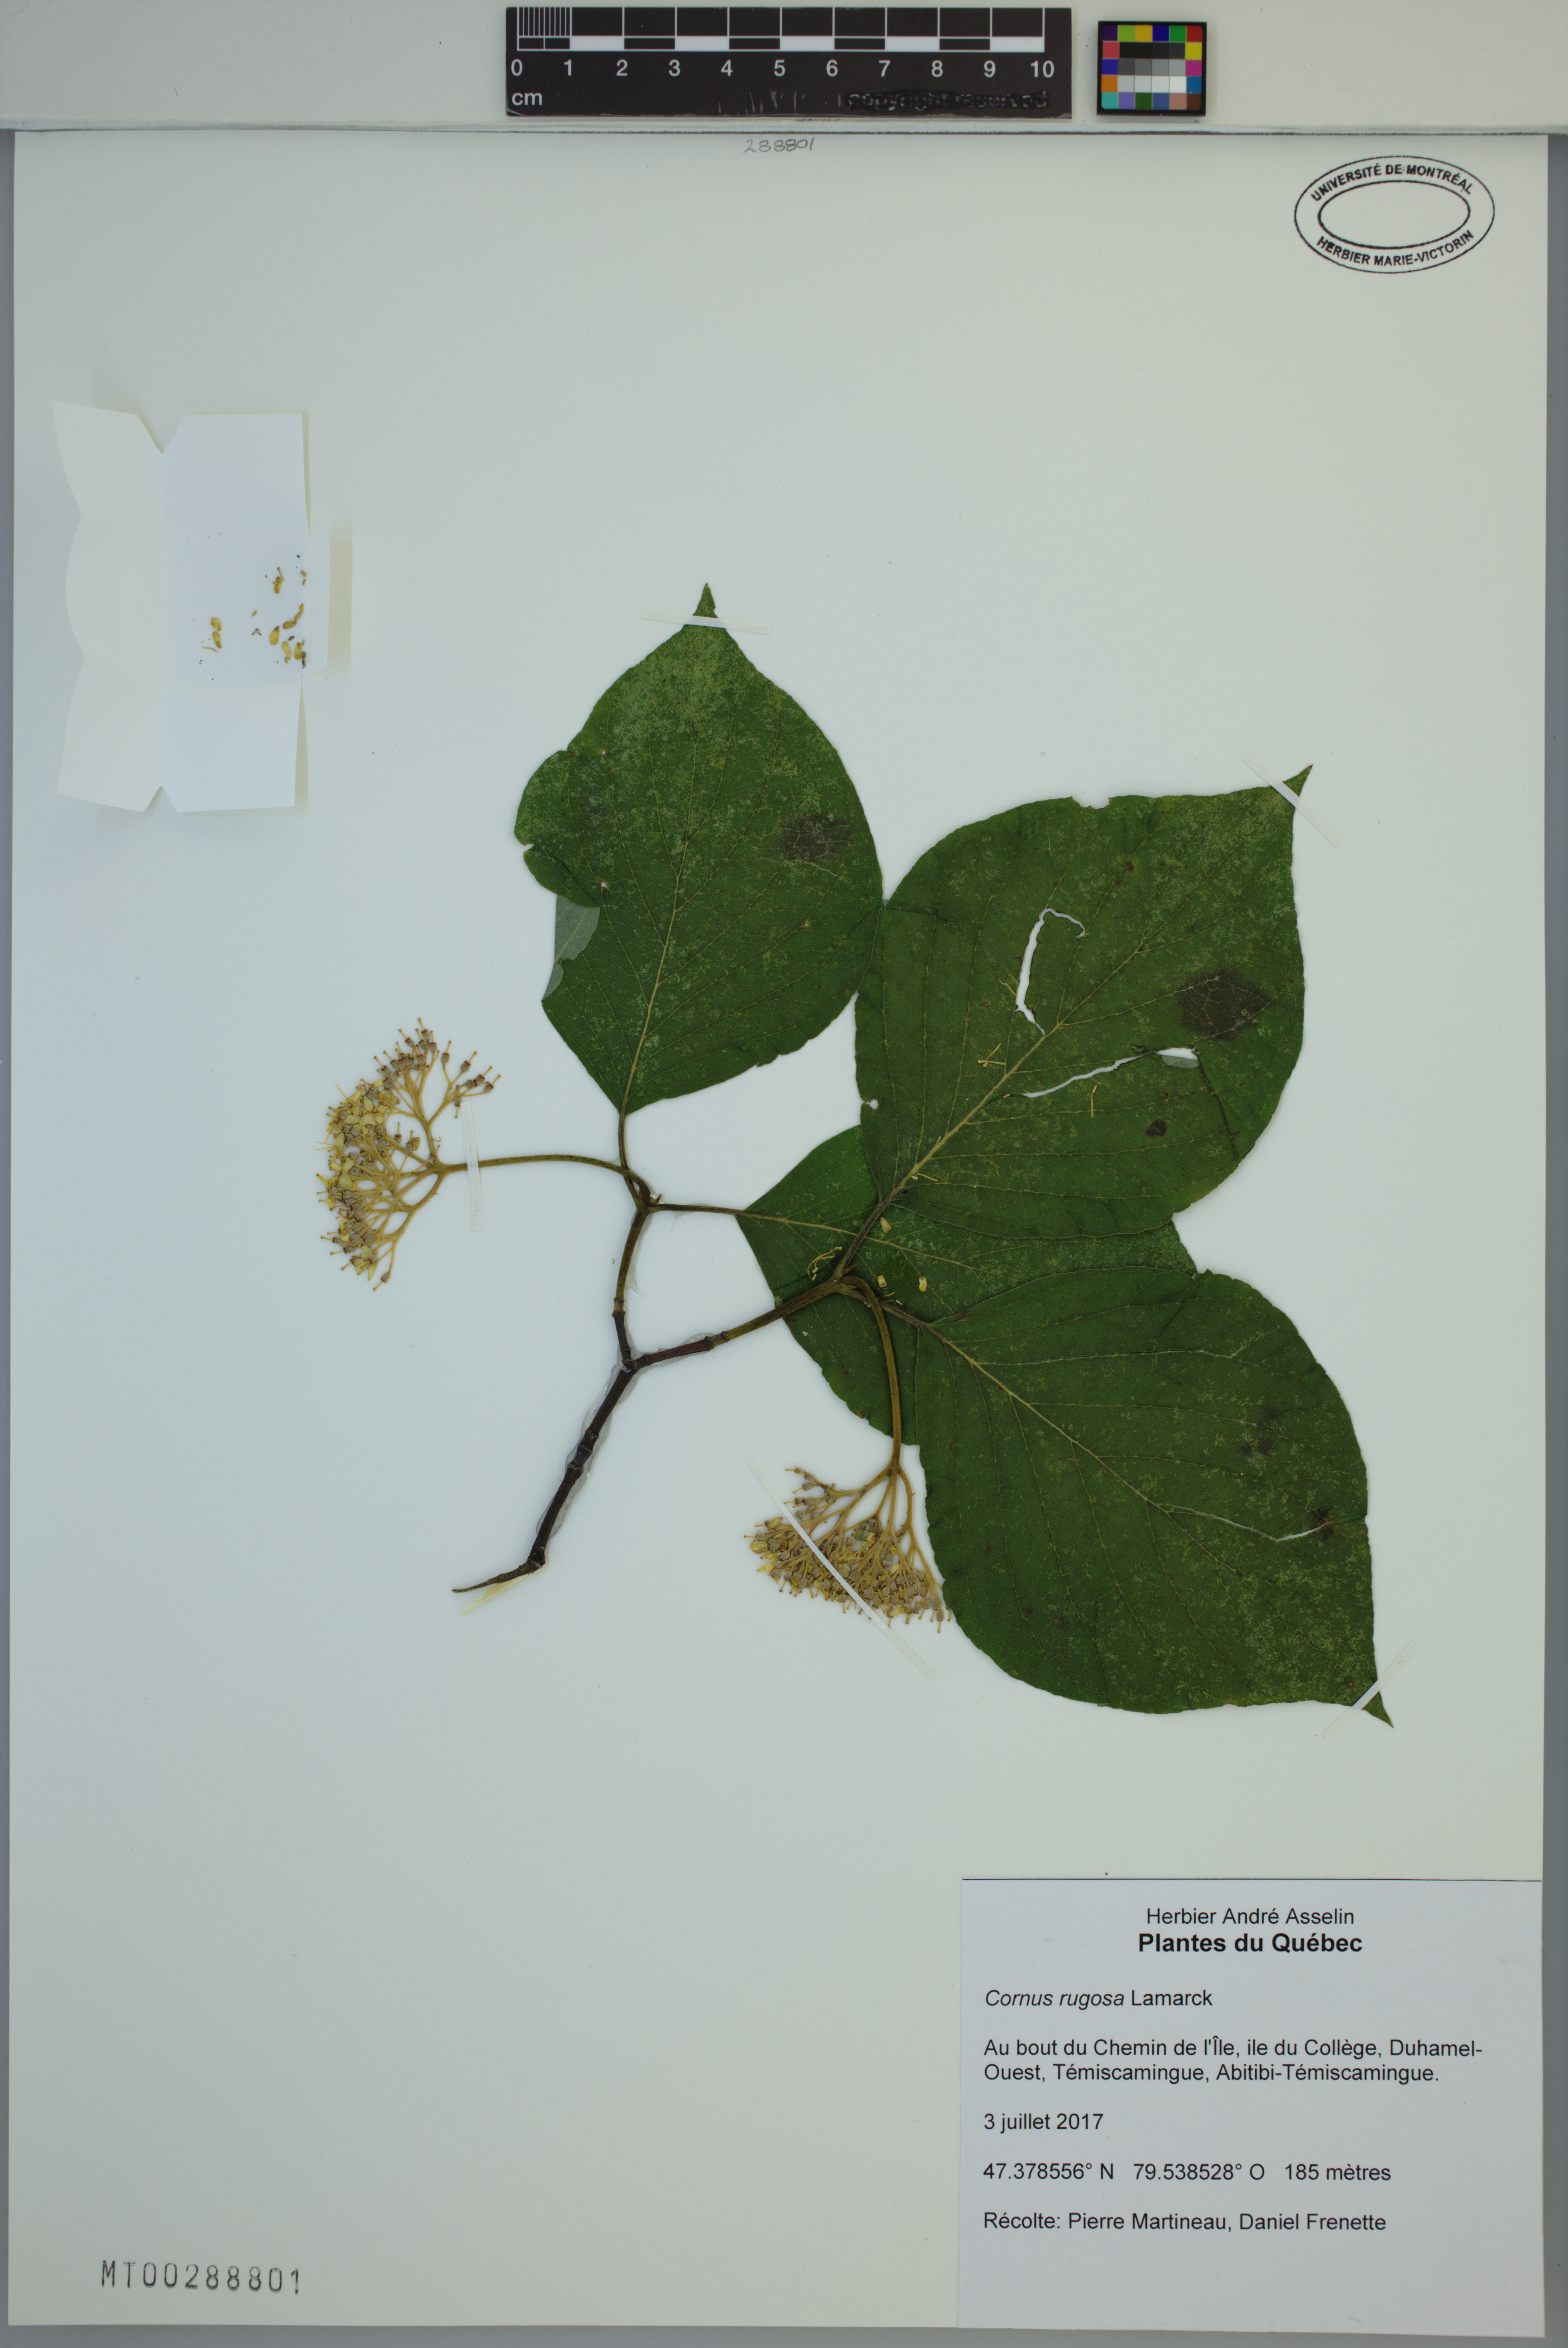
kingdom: Plantae
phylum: Tracheophyta
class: Magnoliopsida
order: Cornales
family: Cornaceae
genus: Cornus
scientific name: Cornus rugosa
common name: Round-leaf dogwood
